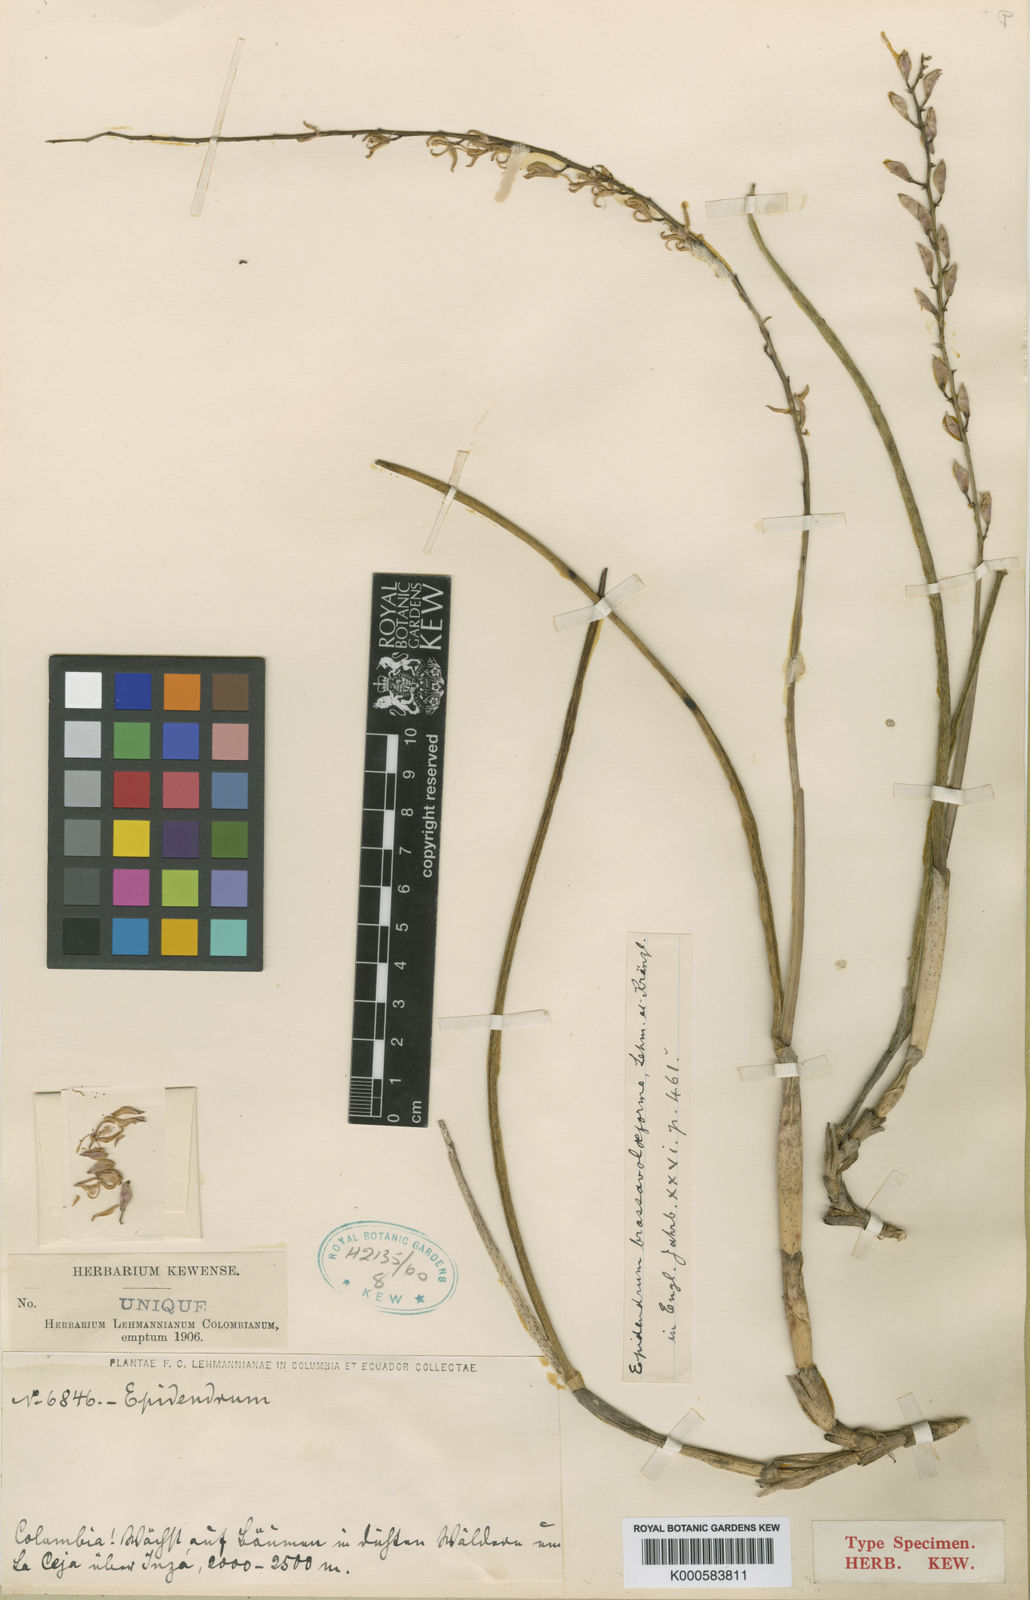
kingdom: Plantae
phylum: Tracheophyta
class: Liliopsida
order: Asparagales
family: Orchidaceae
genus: Epidendrum
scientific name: Epidendrum
